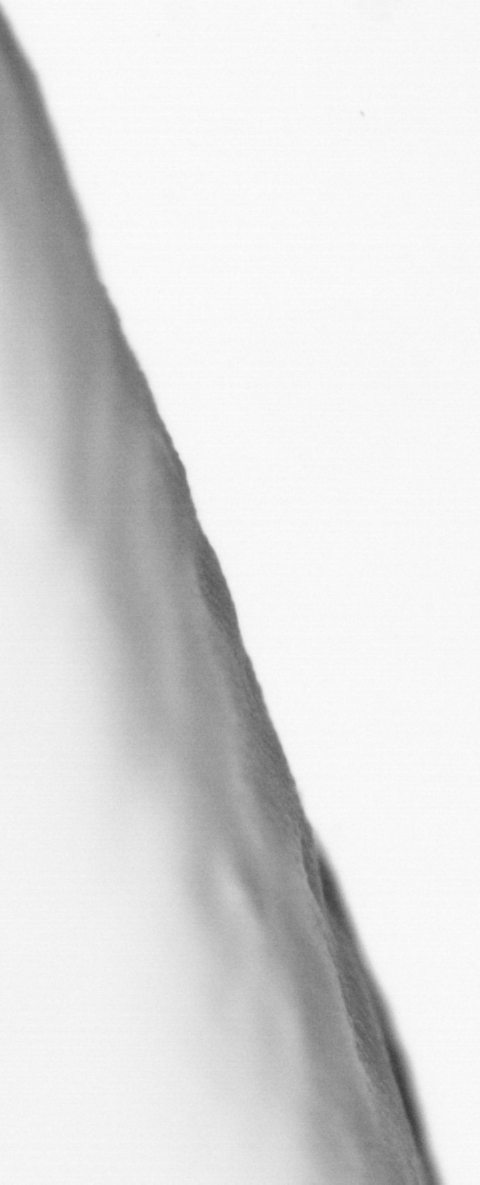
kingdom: Animalia
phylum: Chordata
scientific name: Chordata
